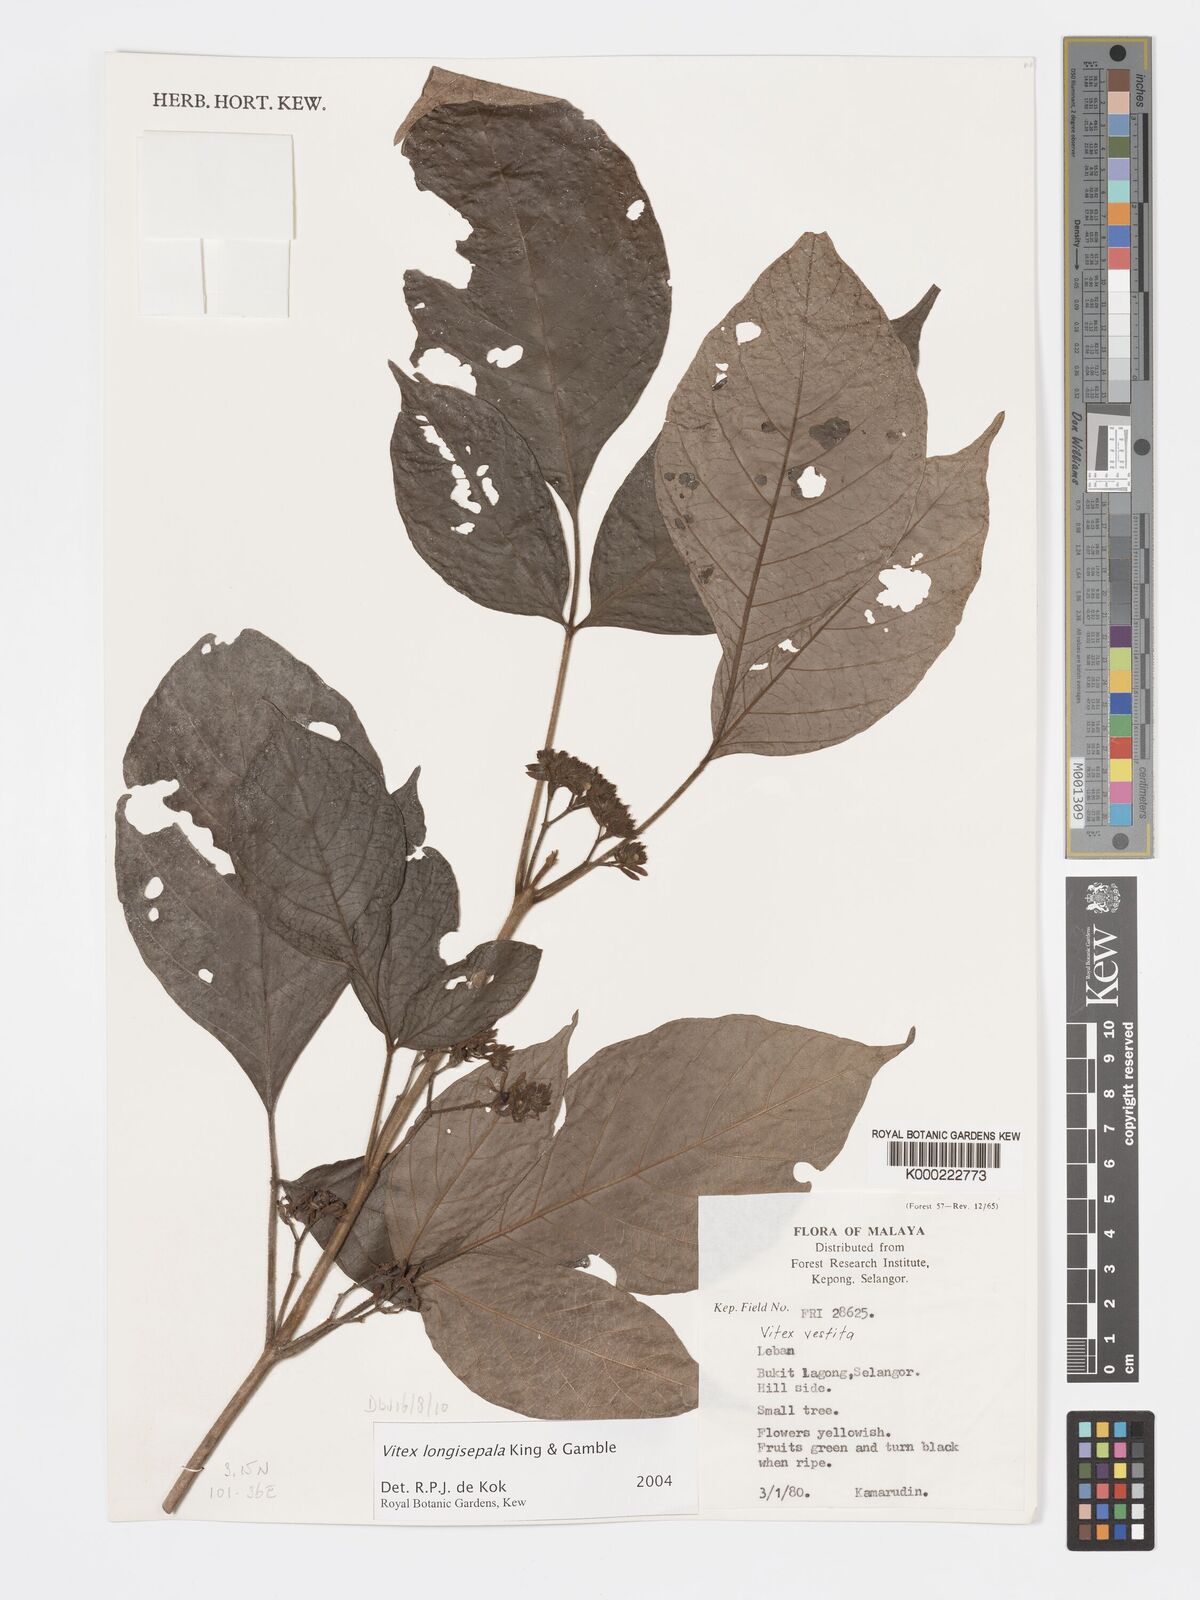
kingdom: Plantae
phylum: Tracheophyta
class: Magnoliopsida
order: Lamiales
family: Lamiaceae
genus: Vitex
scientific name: Vitex longisepala
